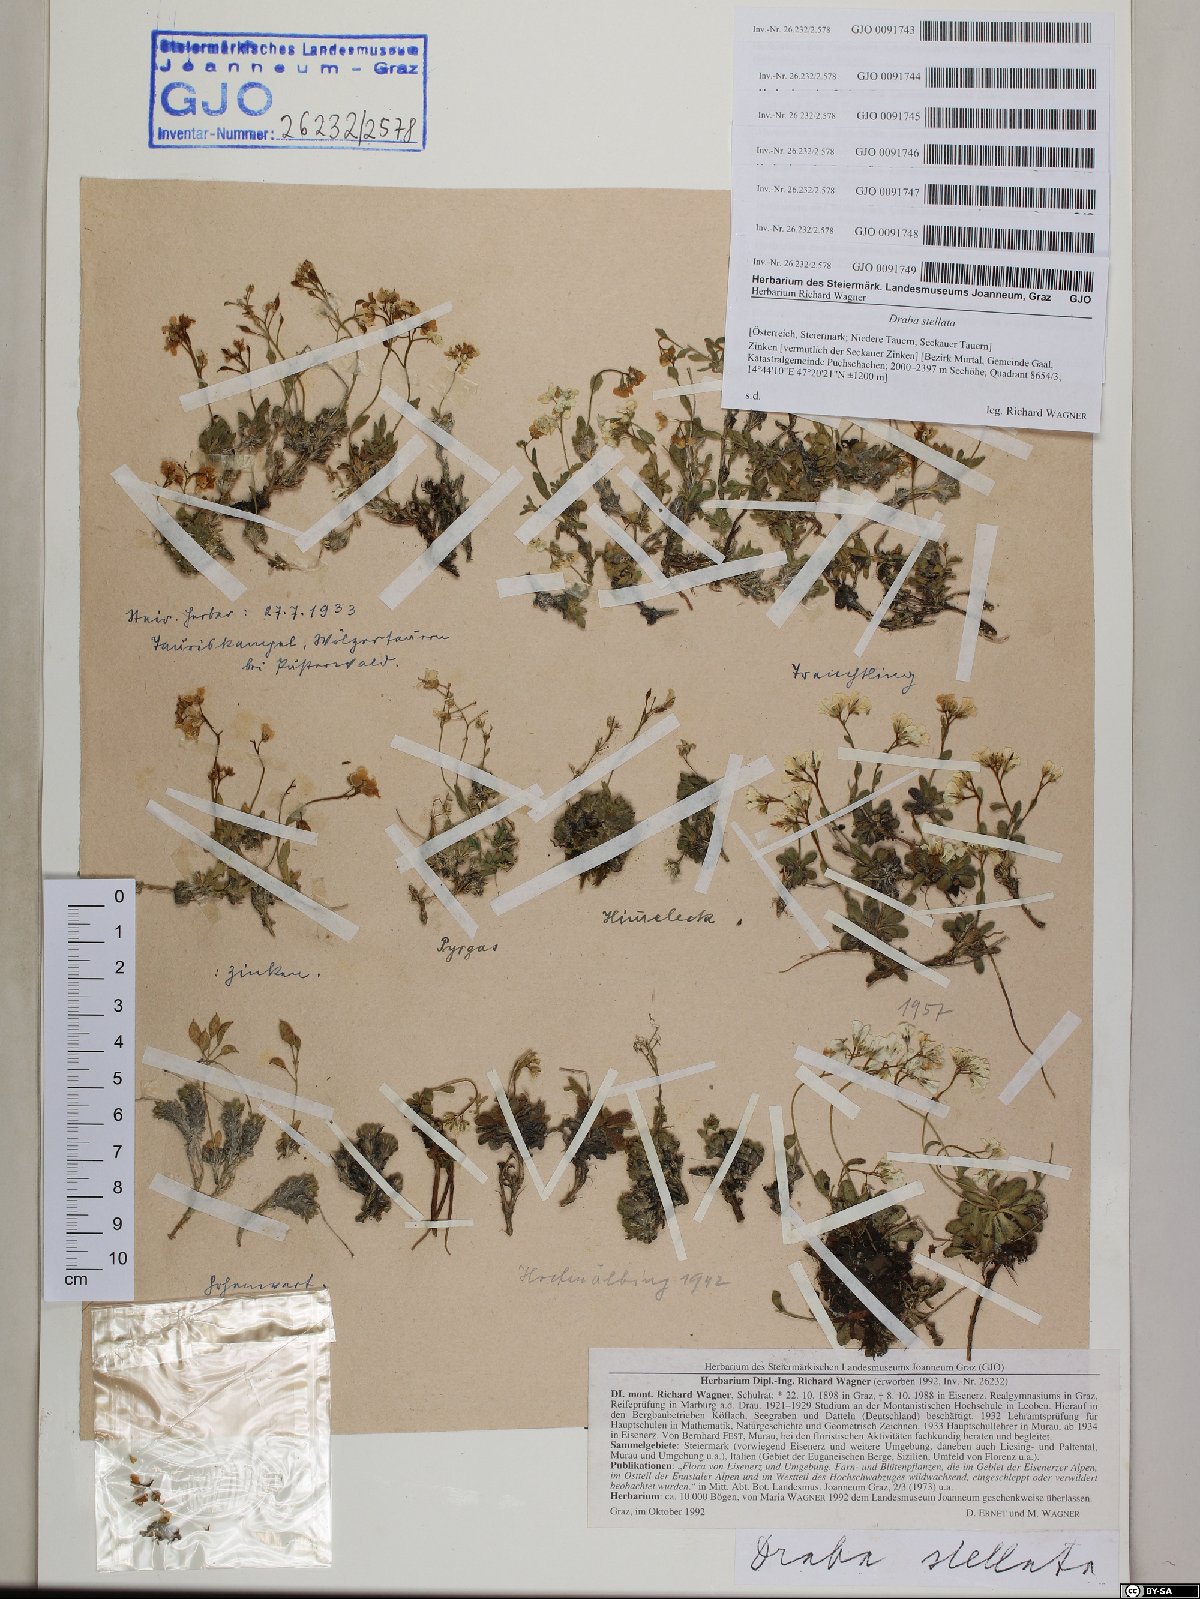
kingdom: Plantae
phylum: Tracheophyta
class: Magnoliopsida
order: Brassicales
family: Brassicaceae
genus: Draba
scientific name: Draba stellata
